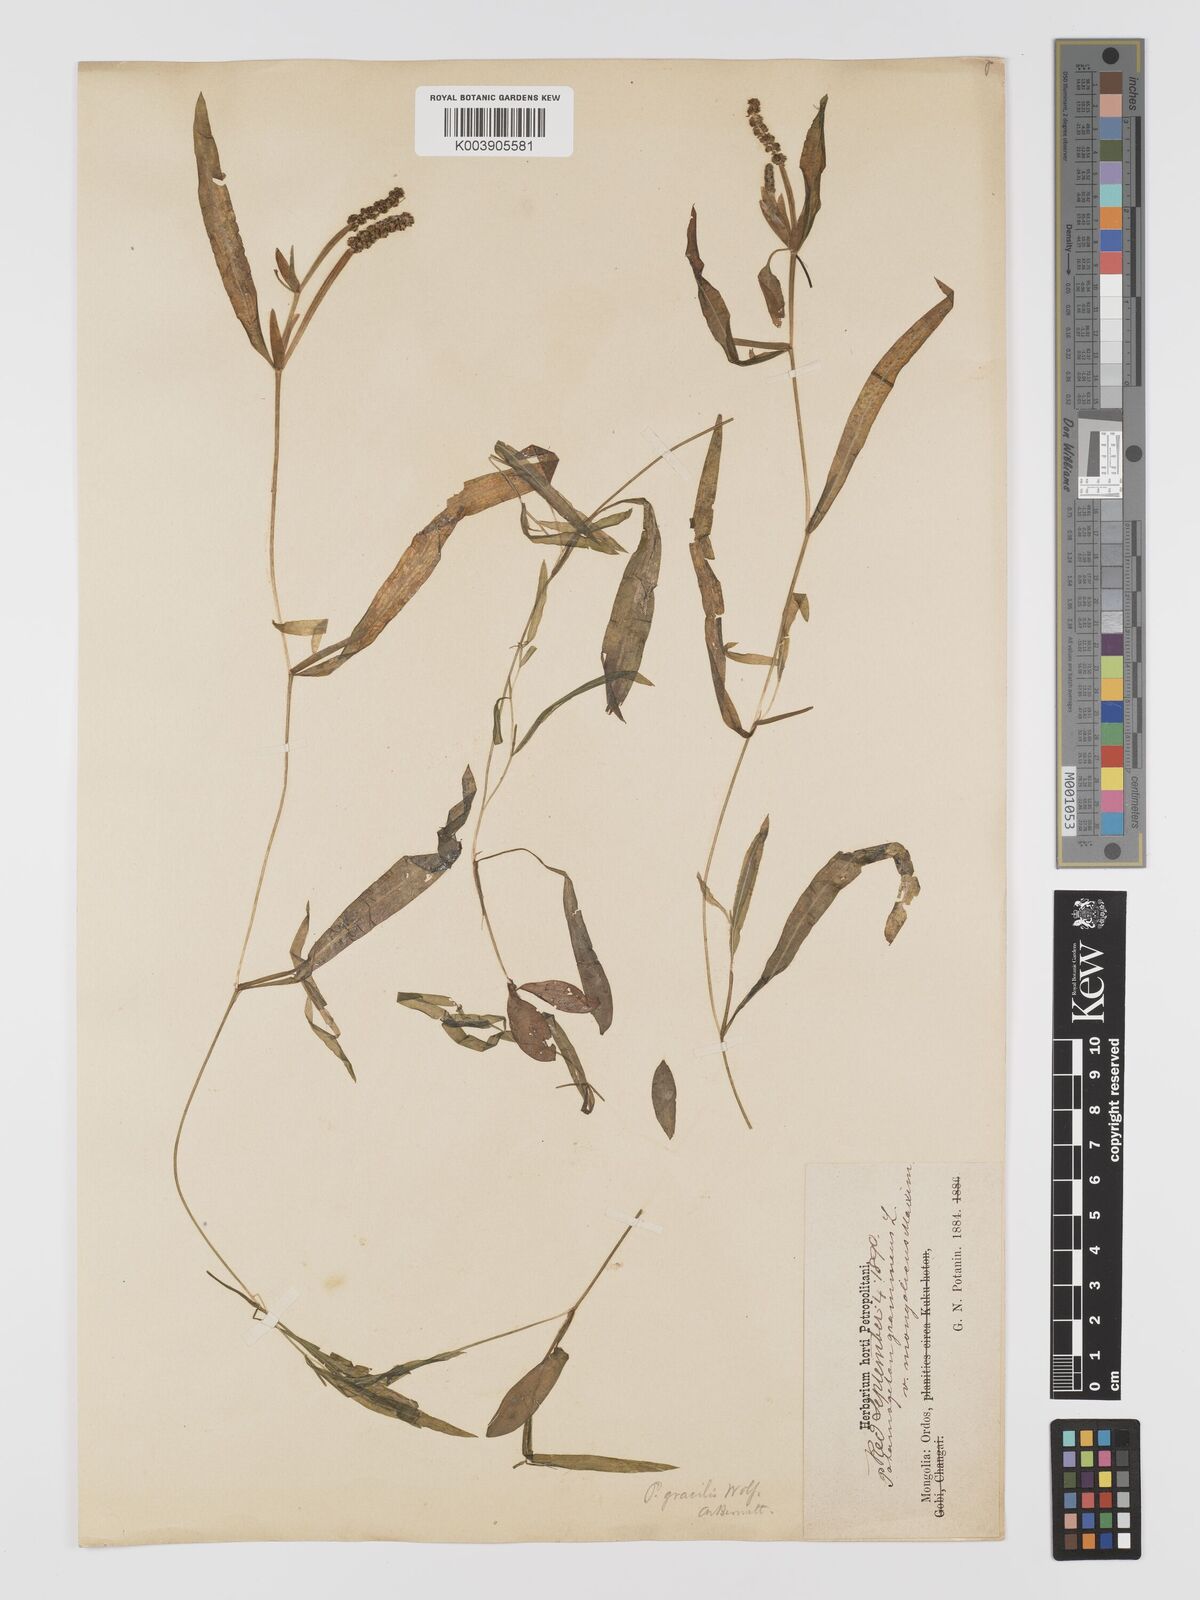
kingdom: Plantae
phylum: Tracheophyta
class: Liliopsida
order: Alismatales
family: Potamogetonaceae
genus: Potamogeton
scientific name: Potamogeton gramineus
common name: Various-leaved pondweed
